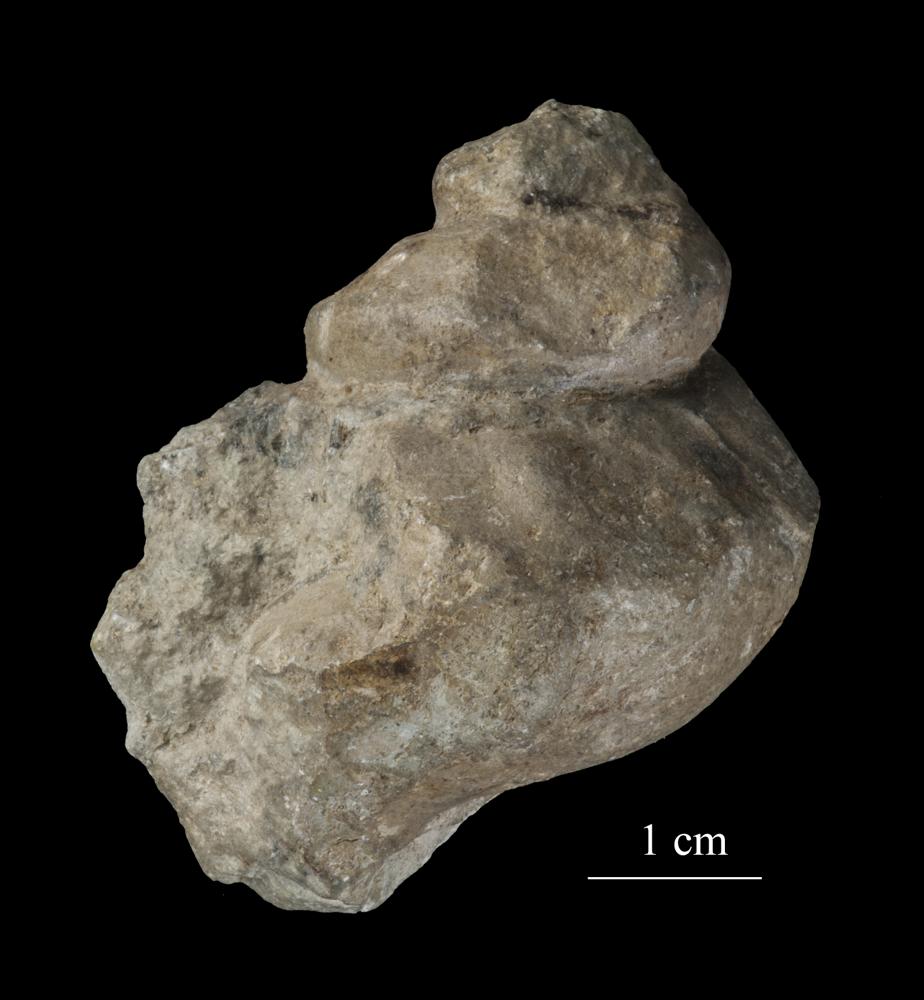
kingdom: Animalia
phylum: Mollusca
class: Gastropoda
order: Pleurotomariida
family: Pleurotomariidae
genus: Pleurotomaria
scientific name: Pleurotomaria
